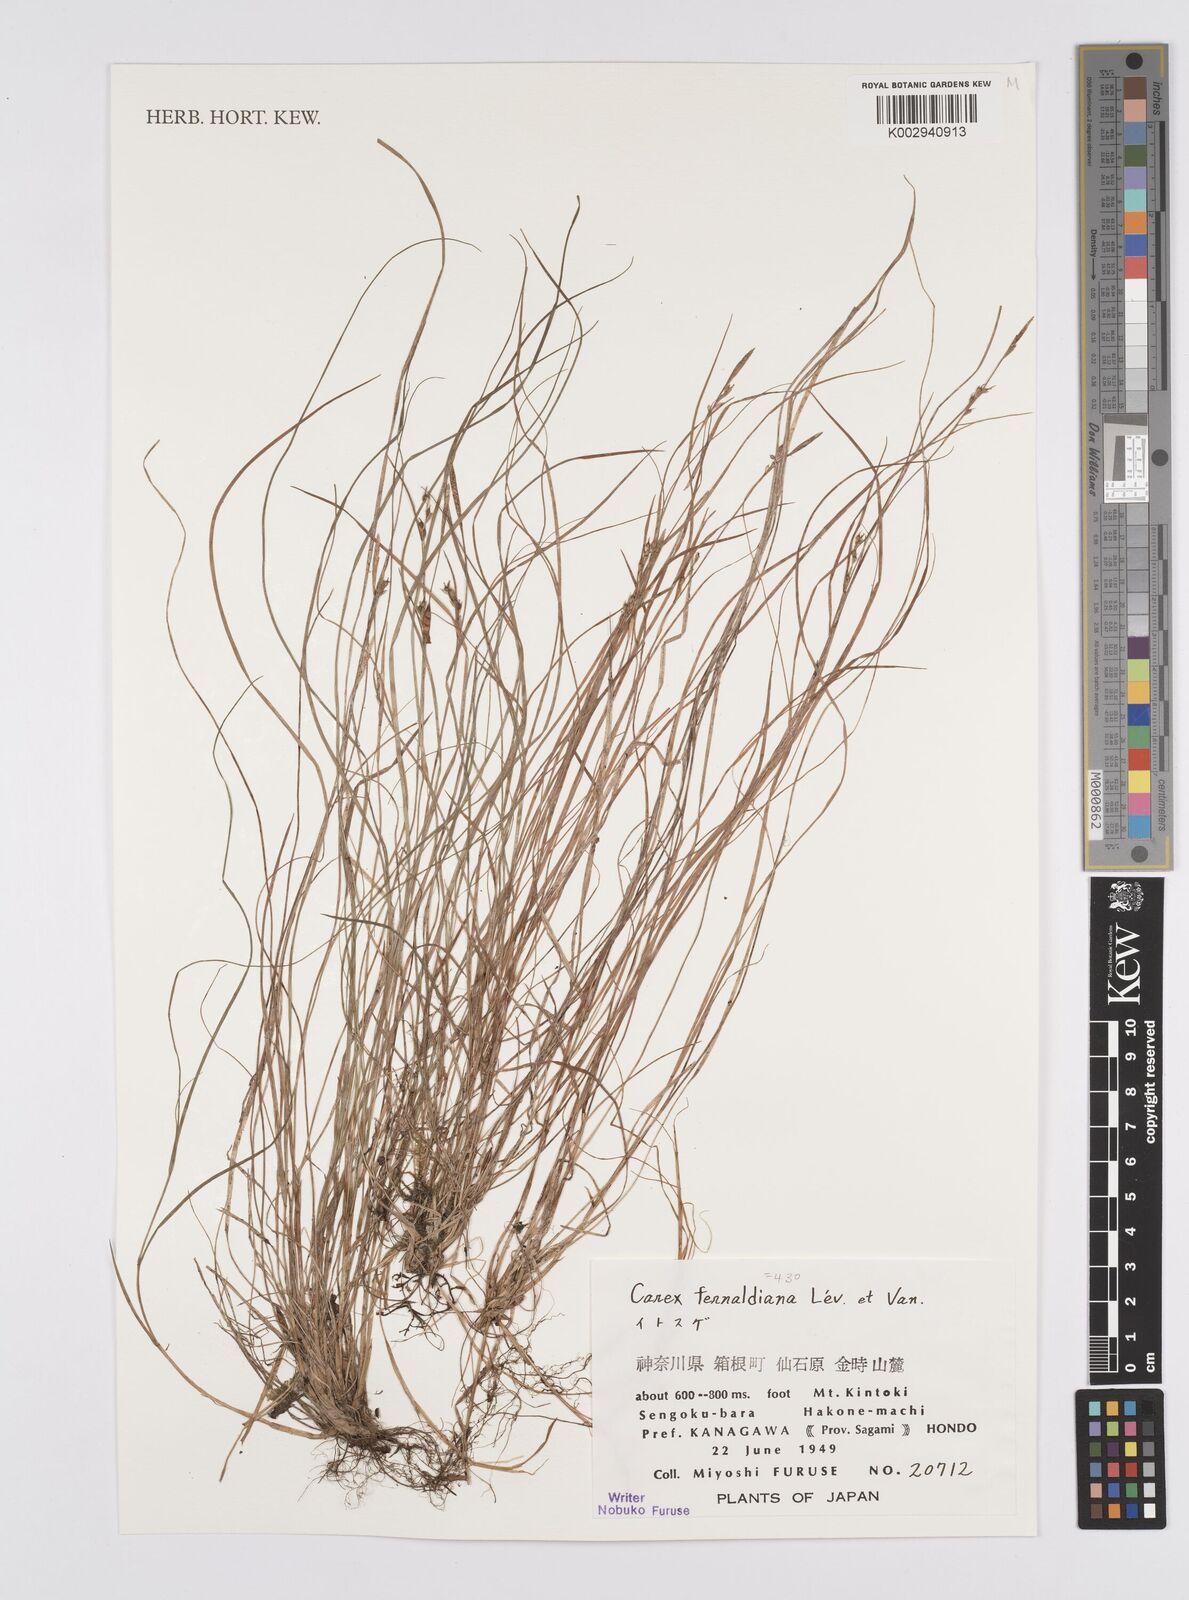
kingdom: Plantae
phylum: Tracheophyta
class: Liliopsida
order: Poales
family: Cyperaceae
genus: Carex
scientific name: Carex breviculmis
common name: Asian shortstem sedge
